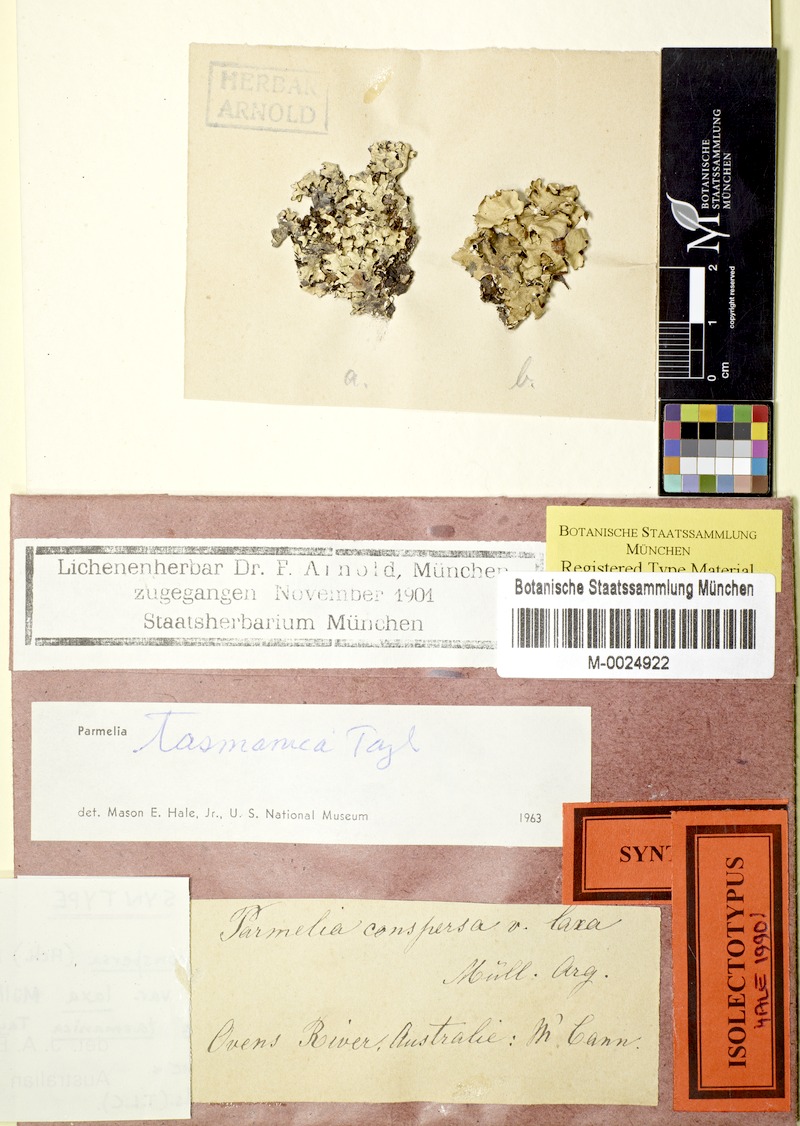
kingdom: Fungi
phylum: Ascomycota
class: Lecanoromycetes
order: Lecanorales
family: Parmeliaceae
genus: Xanthoparmelia
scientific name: Xanthoparmelia tasmanica
